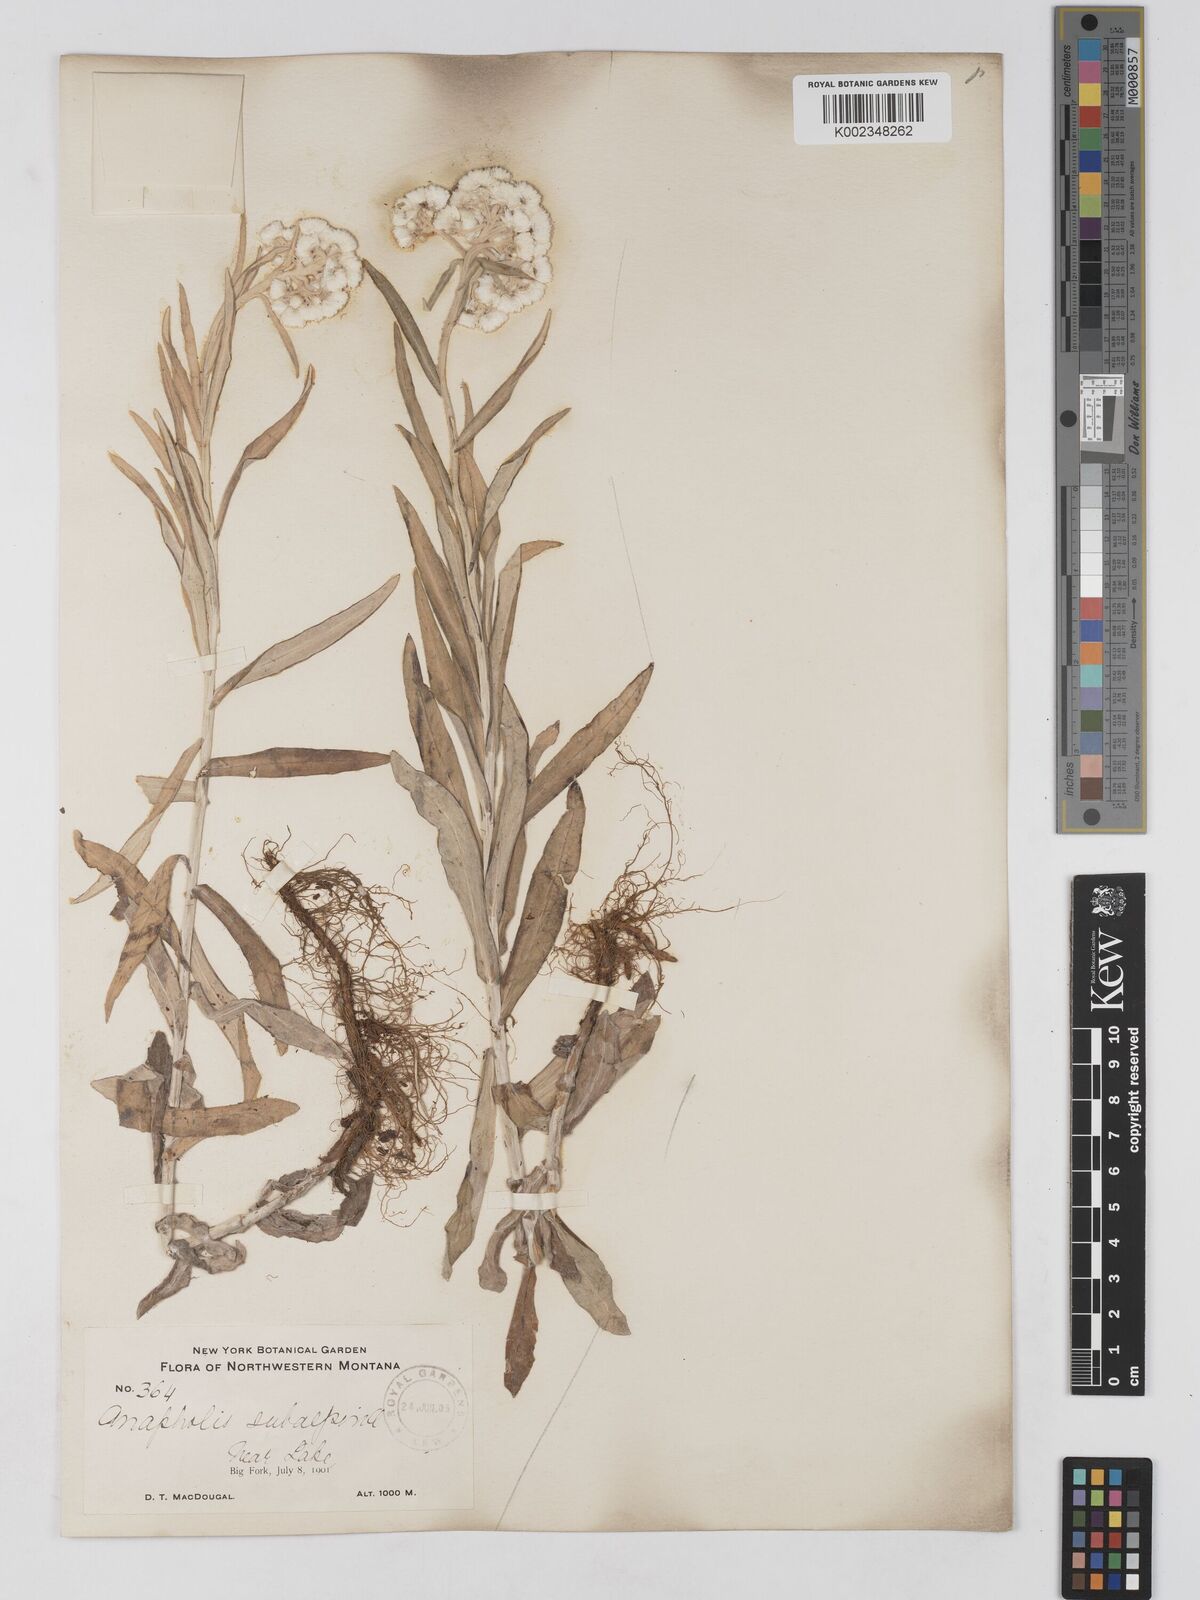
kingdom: Plantae
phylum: Tracheophyta
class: Magnoliopsida
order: Asterales
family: Asteraceae
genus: Anaphalis
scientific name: Anaphalis margaritacea
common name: Pearly everlasting
